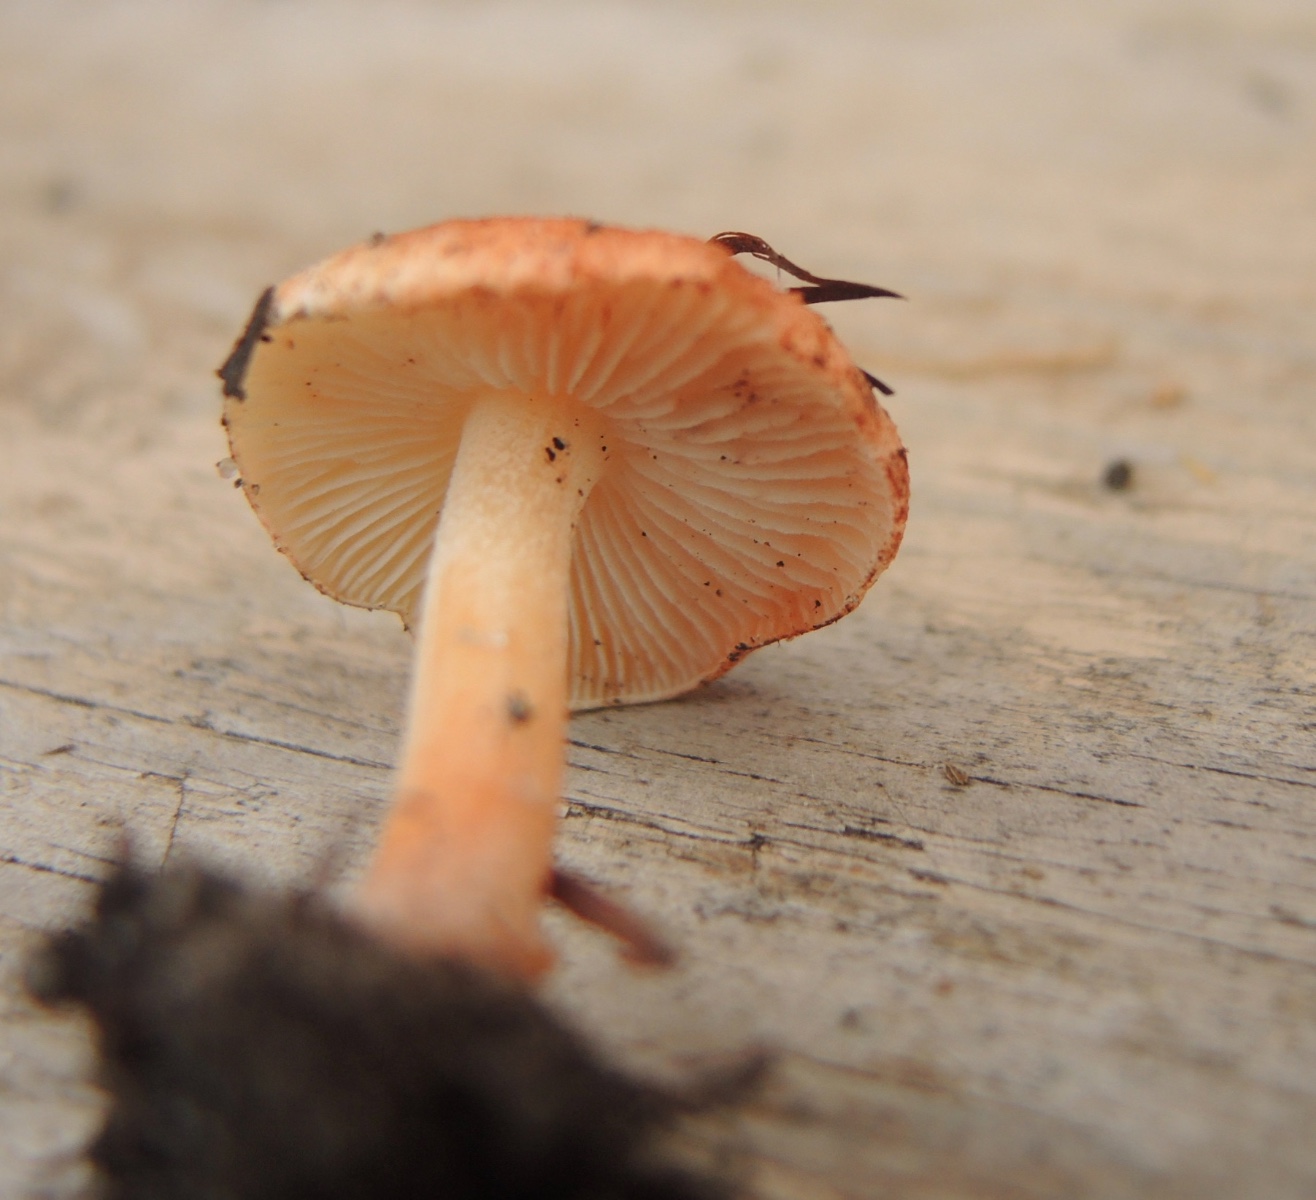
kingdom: Fungi
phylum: Basidiomycota
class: Agaricomycetes
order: Agaricales
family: Inocybaceae
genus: Inocybe
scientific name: Inocybe godeyi
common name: orangerødmende trævlhat
